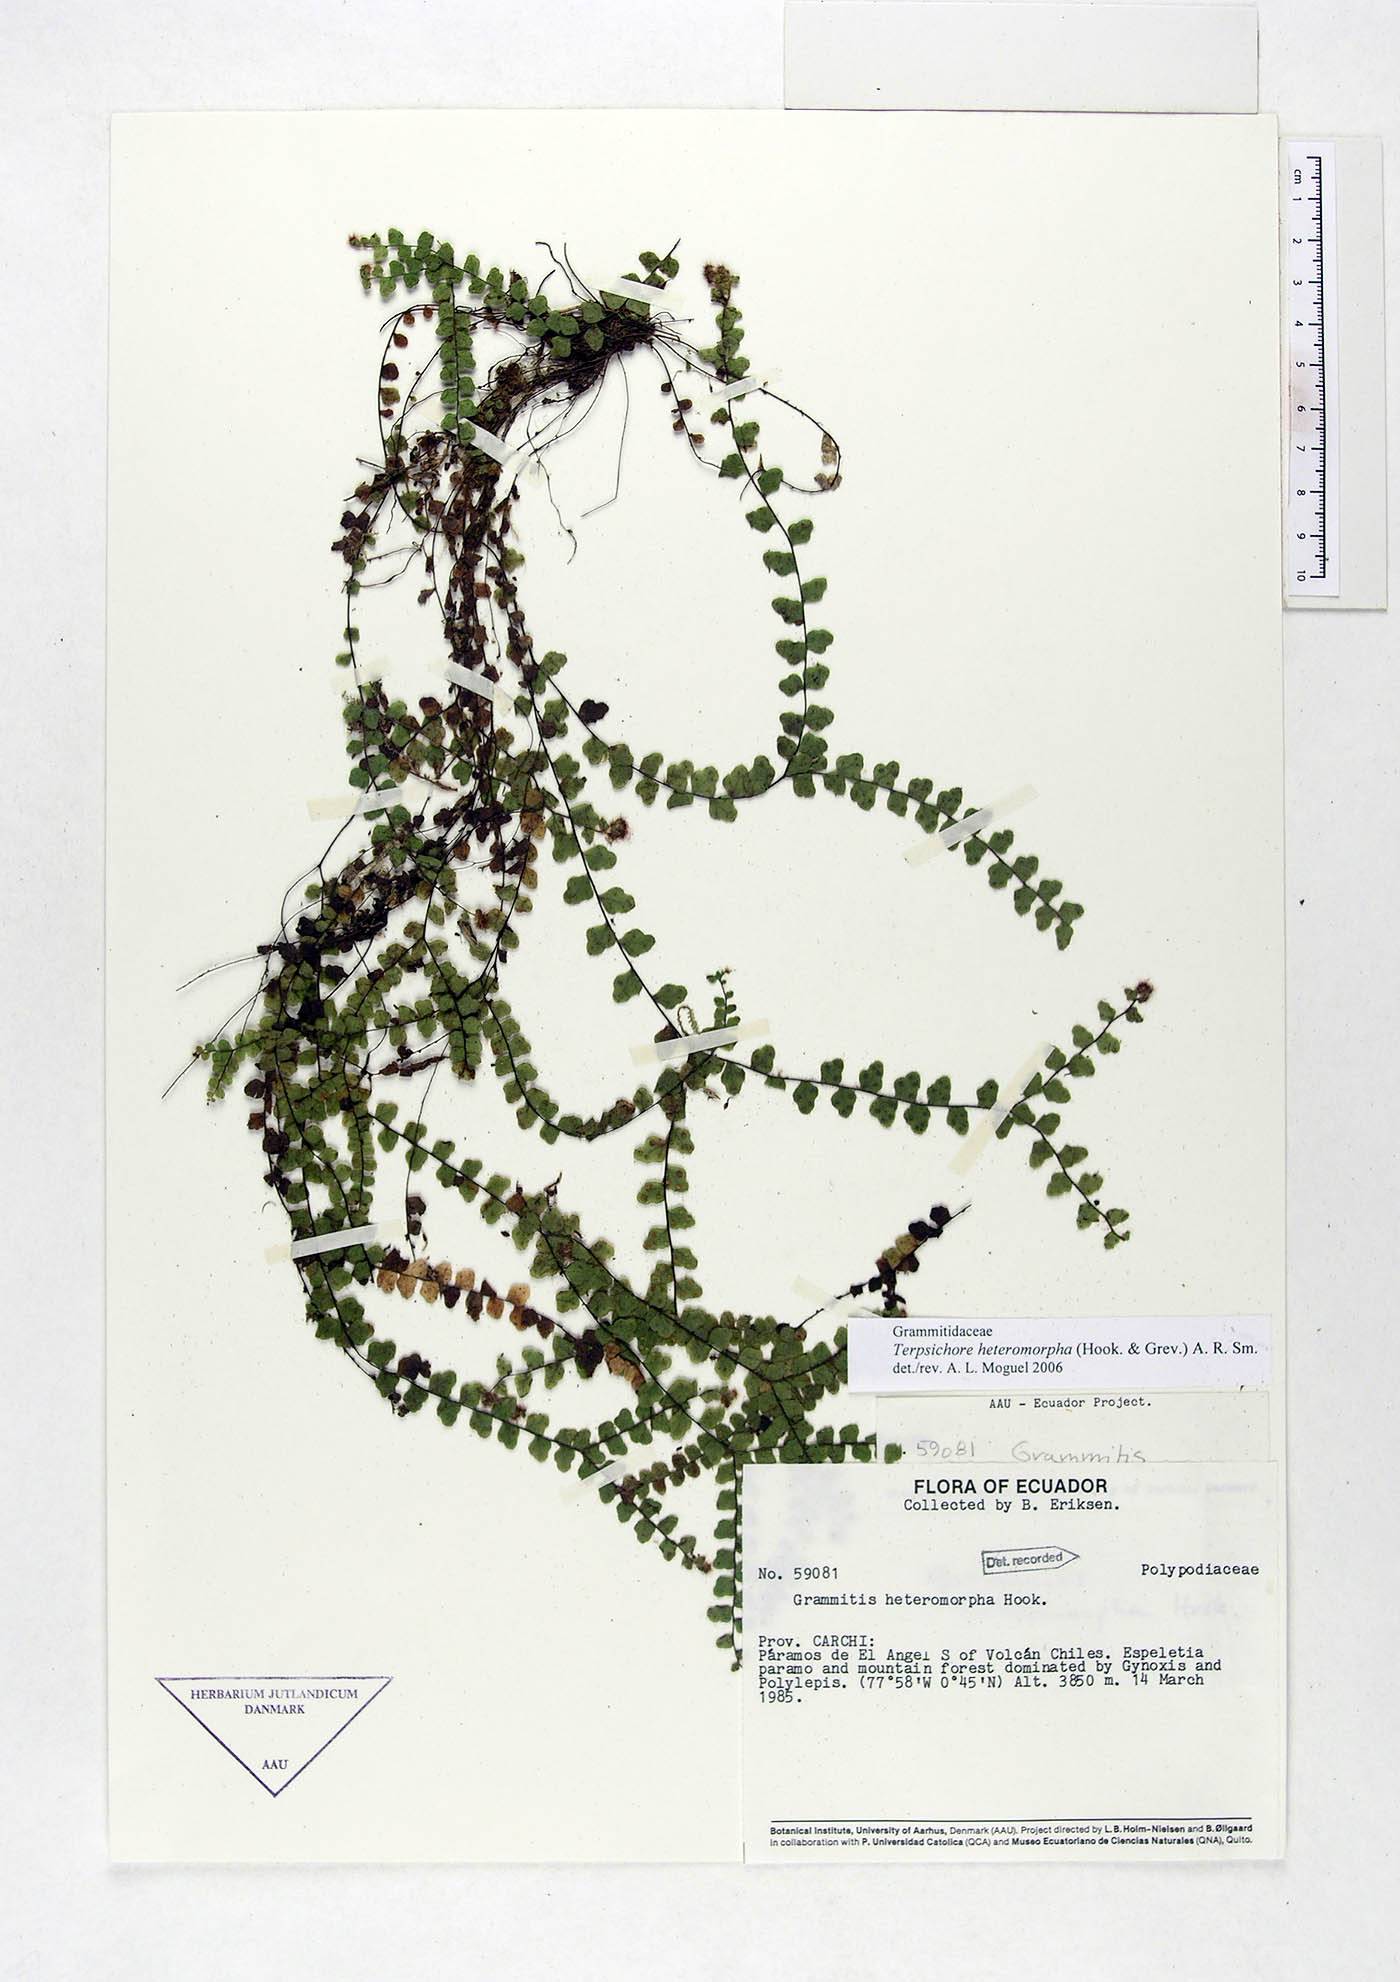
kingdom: Plantae
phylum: Tracheophyta
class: Polypodiopsida
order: Polypodiales
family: Polypodiaceae
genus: Alansmia
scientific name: Alansmia heteromorpha
